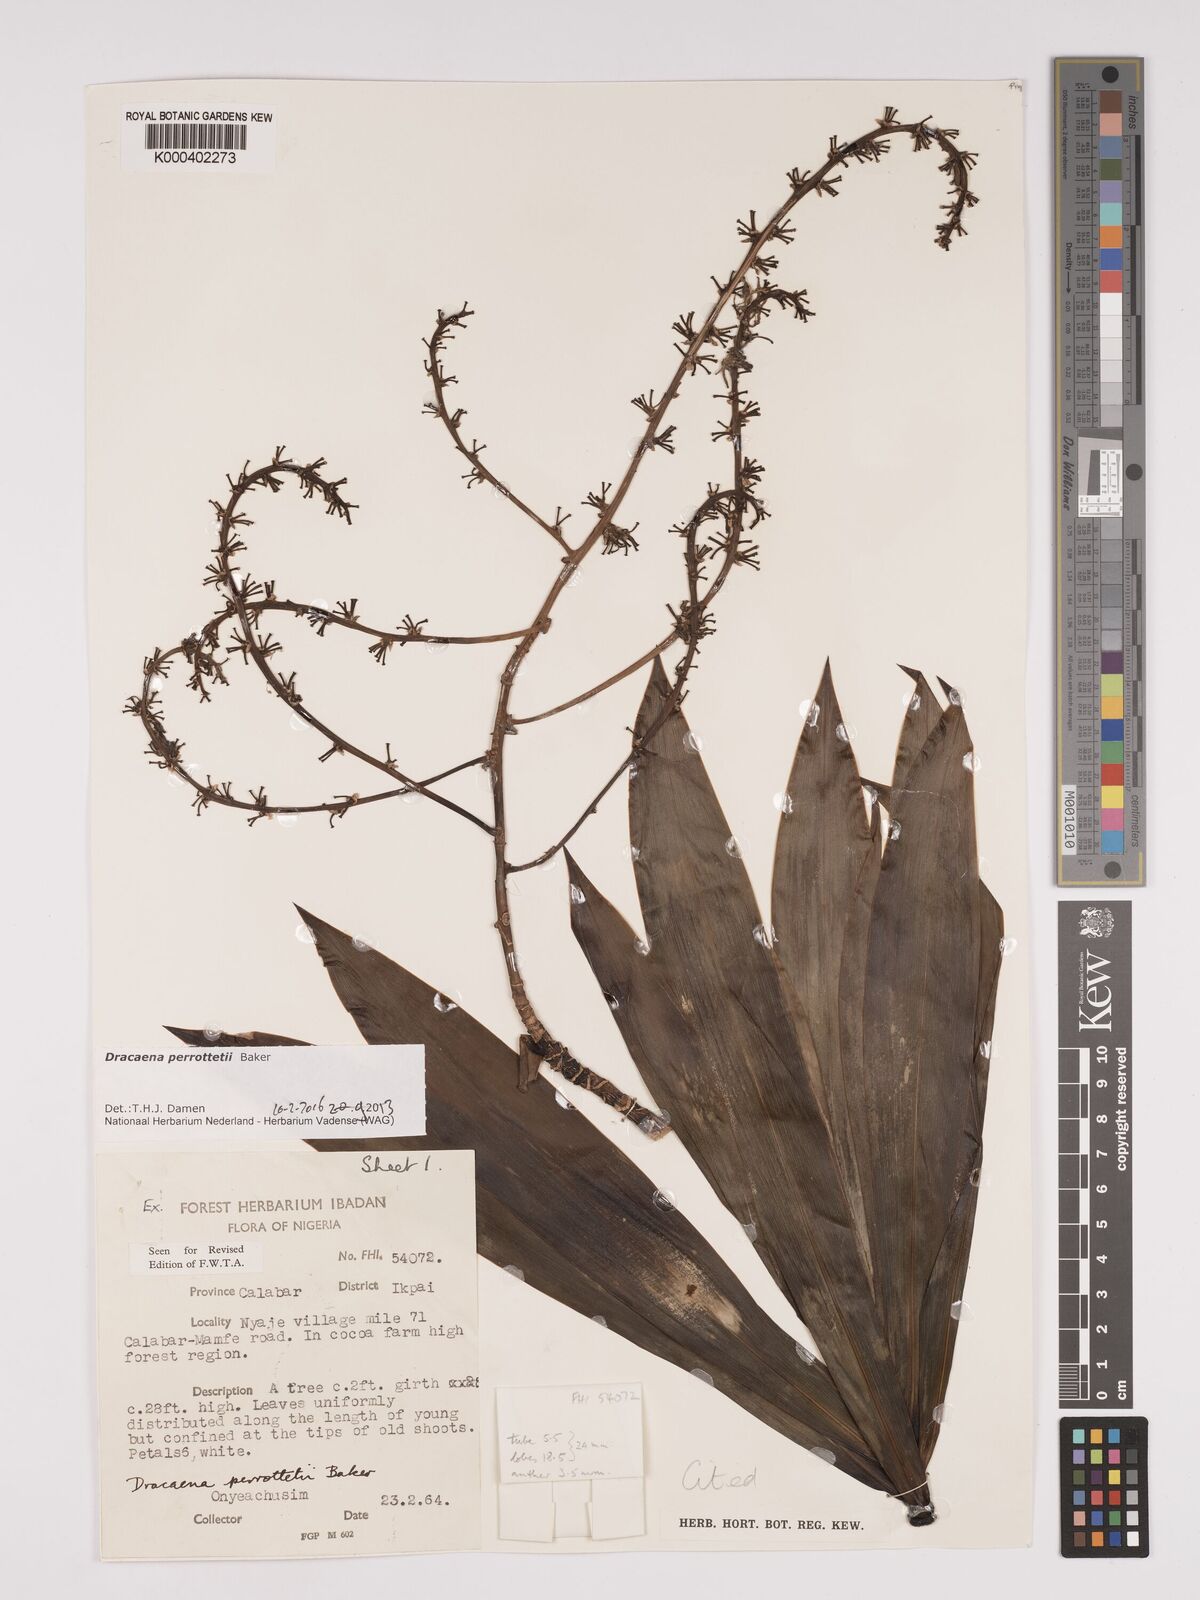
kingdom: Plantae
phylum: Tracheophyta
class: Liliopsida
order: Asparagales
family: Asparagaceae
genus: Dracaena
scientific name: Dracaena perrottetii
